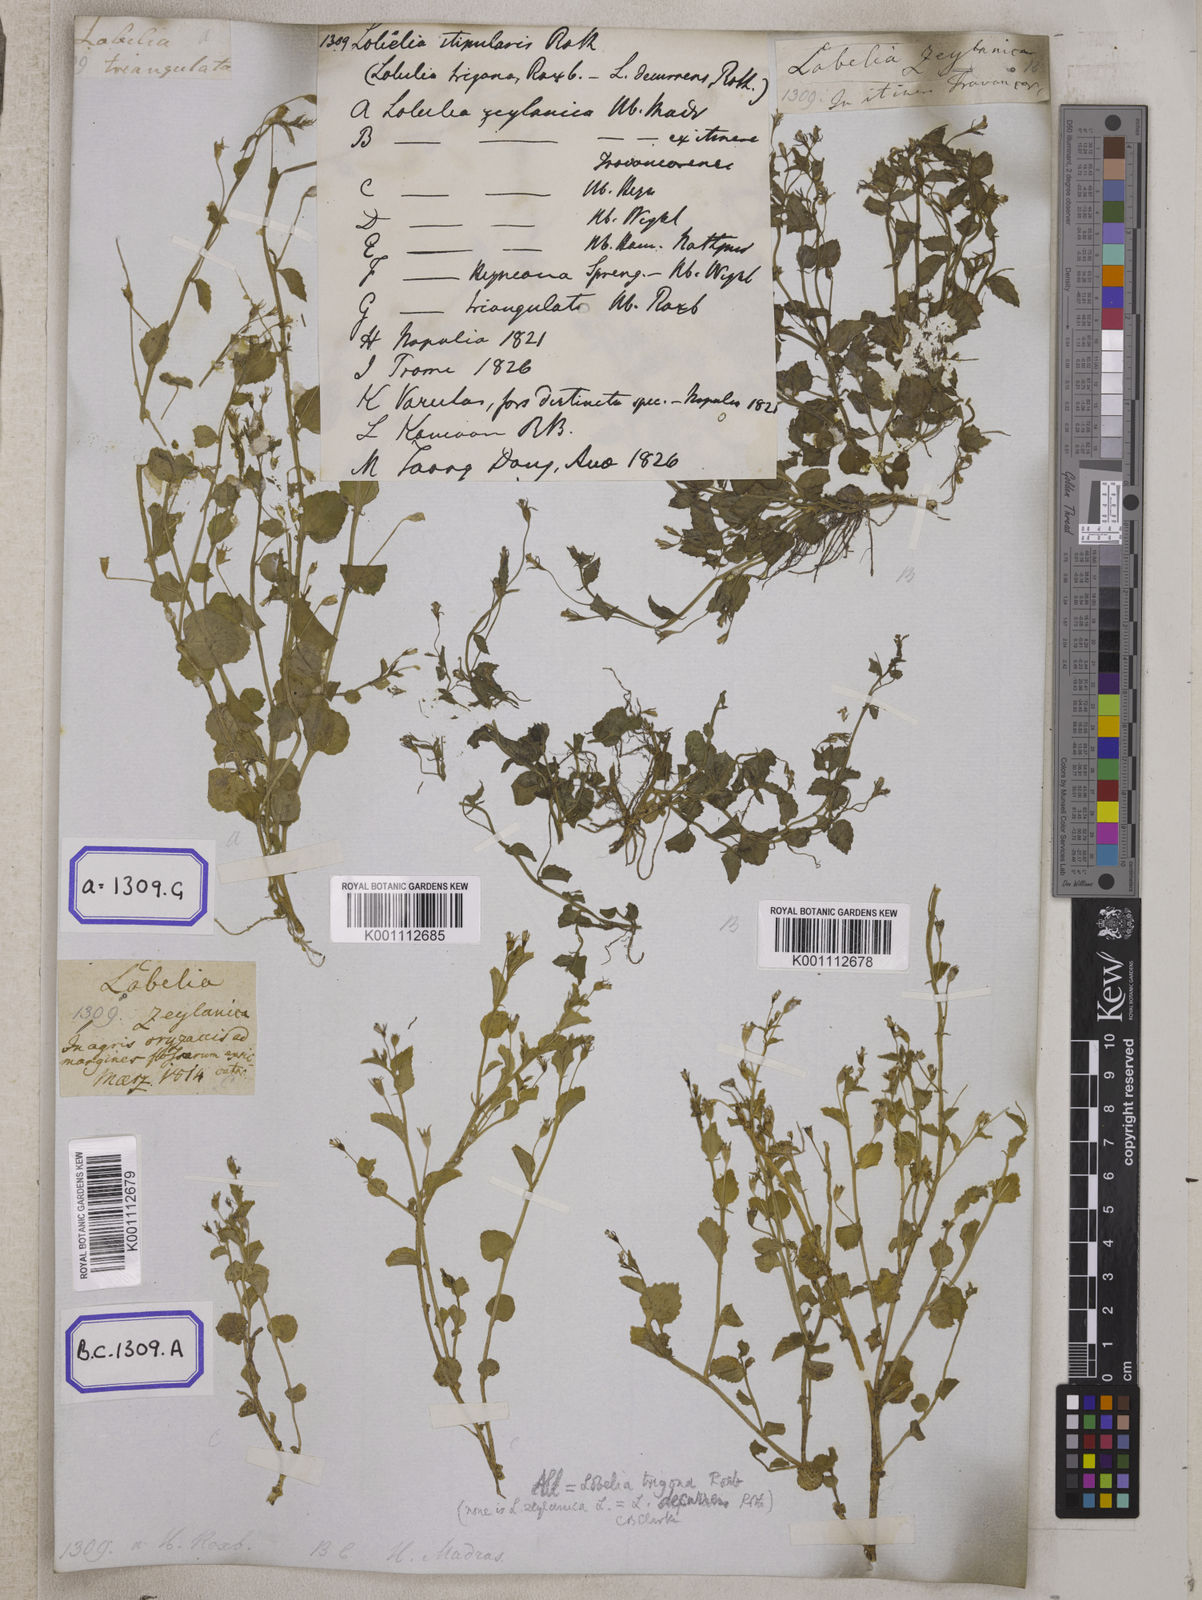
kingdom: Plantae
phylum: Tracheophyta
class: Magnoliopsida
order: Asterales
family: Campanulaceae
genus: Lobelia
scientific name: Lobelia alsinoides
